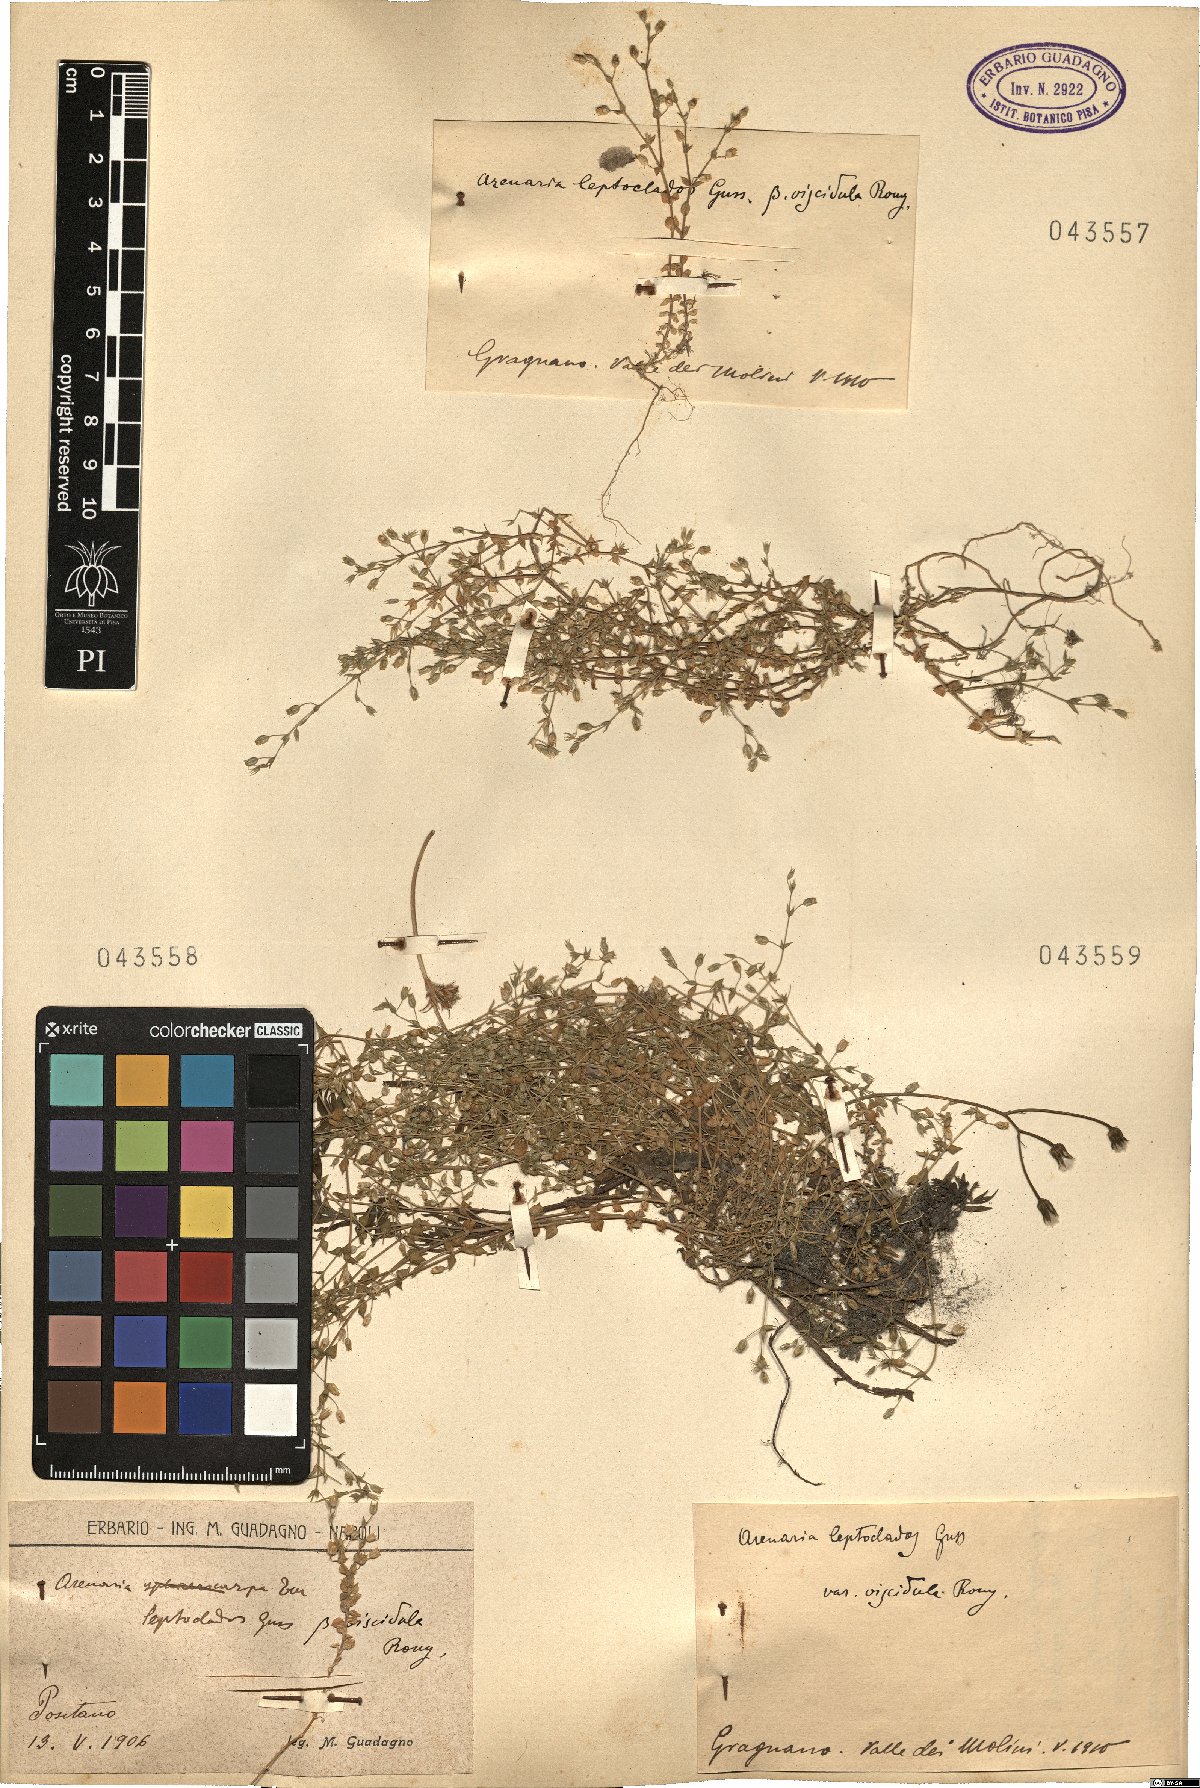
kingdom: Plantae
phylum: Tracheophyta
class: Magnoliopsida
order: Caryophyllales
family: Caryophyllaceae
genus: Arenaria
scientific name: Arenaria leptoclados
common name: Thyme-leaved sandwort
